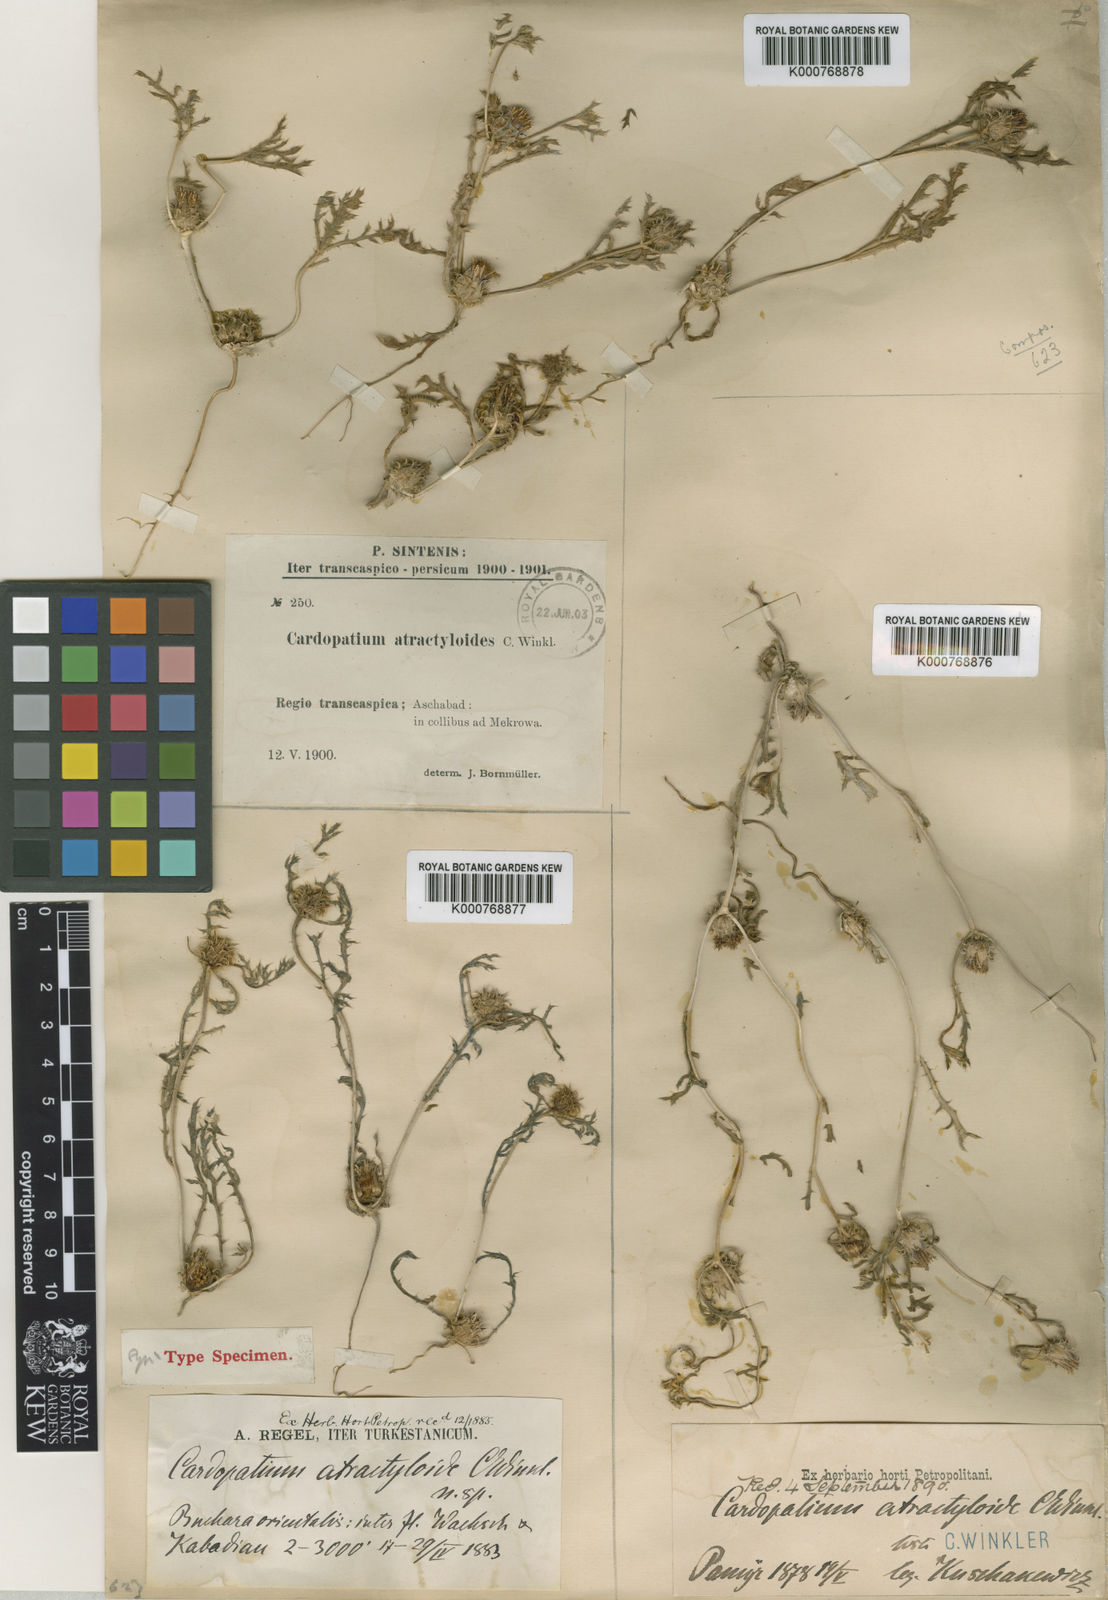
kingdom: Plantae
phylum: Tracheophyta
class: Magnoliopsida
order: Asterales
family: Asteraceae
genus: Cousiniopsis
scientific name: Cousiniopsis atractyloides
